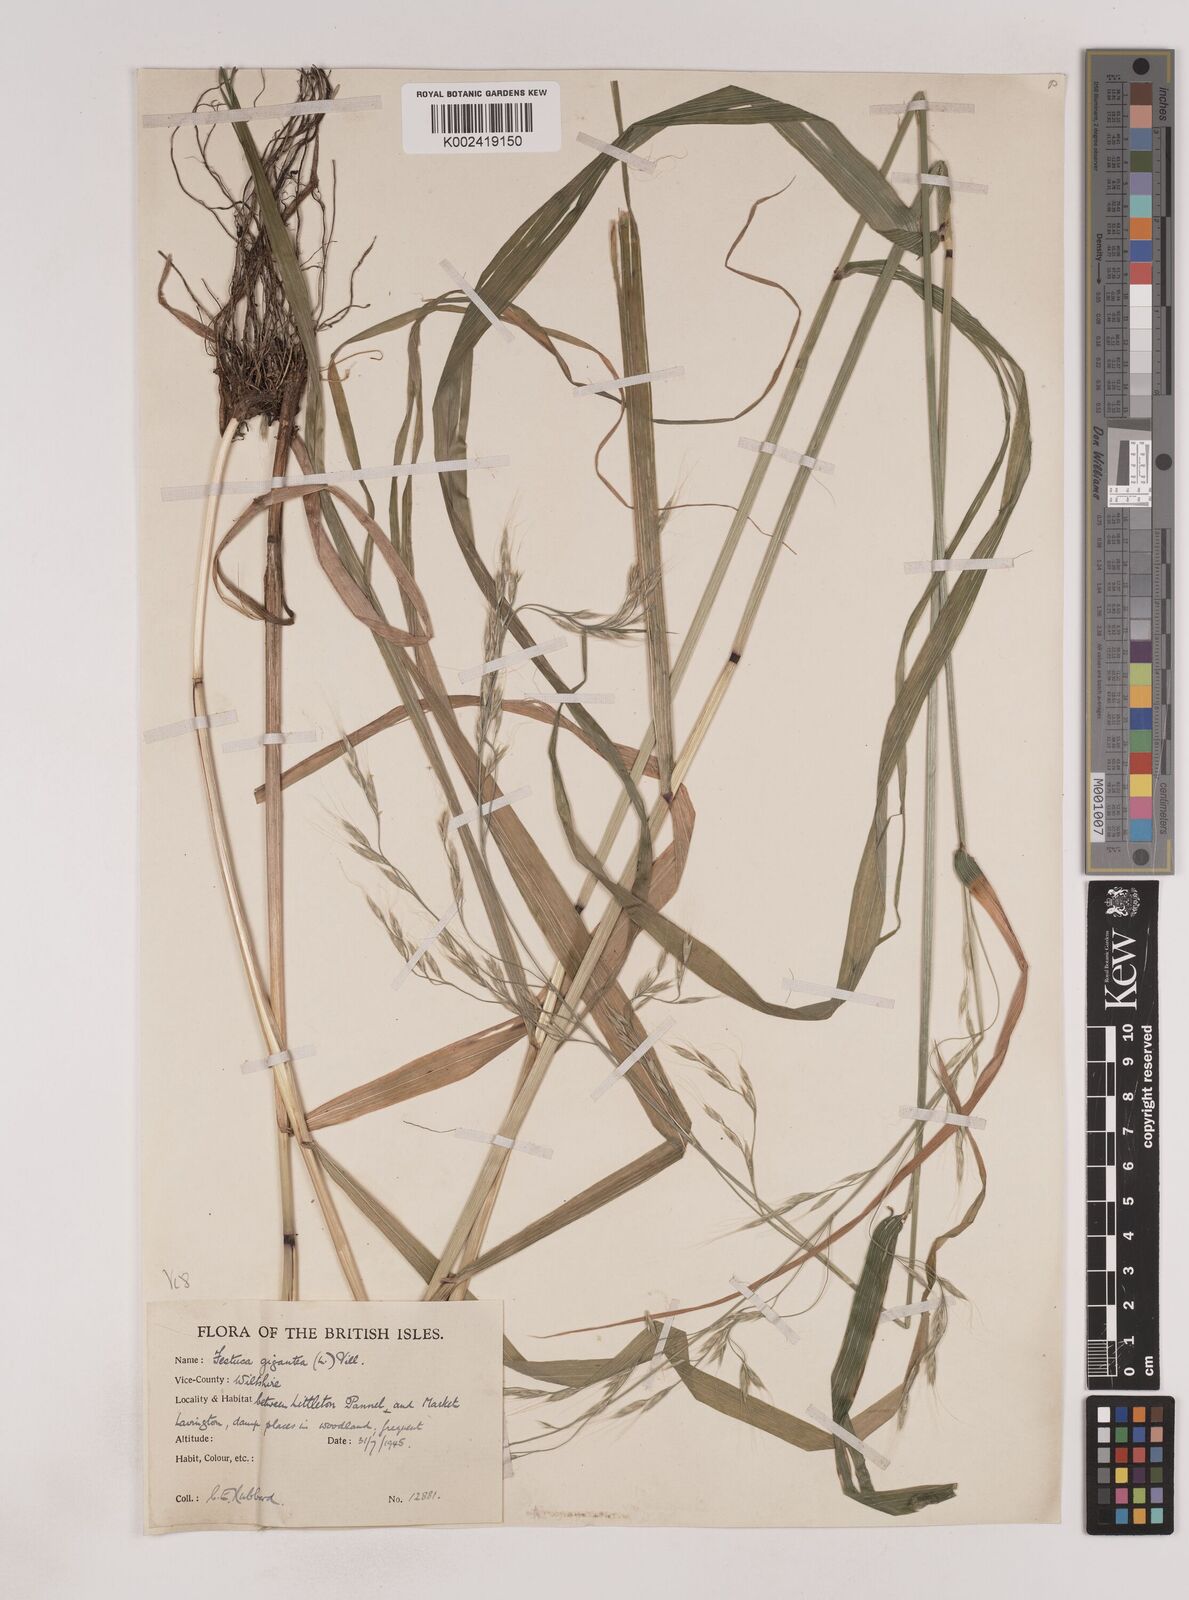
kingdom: Plantae
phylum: Tracheophyta
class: Liliopsida
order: Poales
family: Poaceae
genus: Lolium
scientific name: Lolium giganteum
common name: Giant fescue
